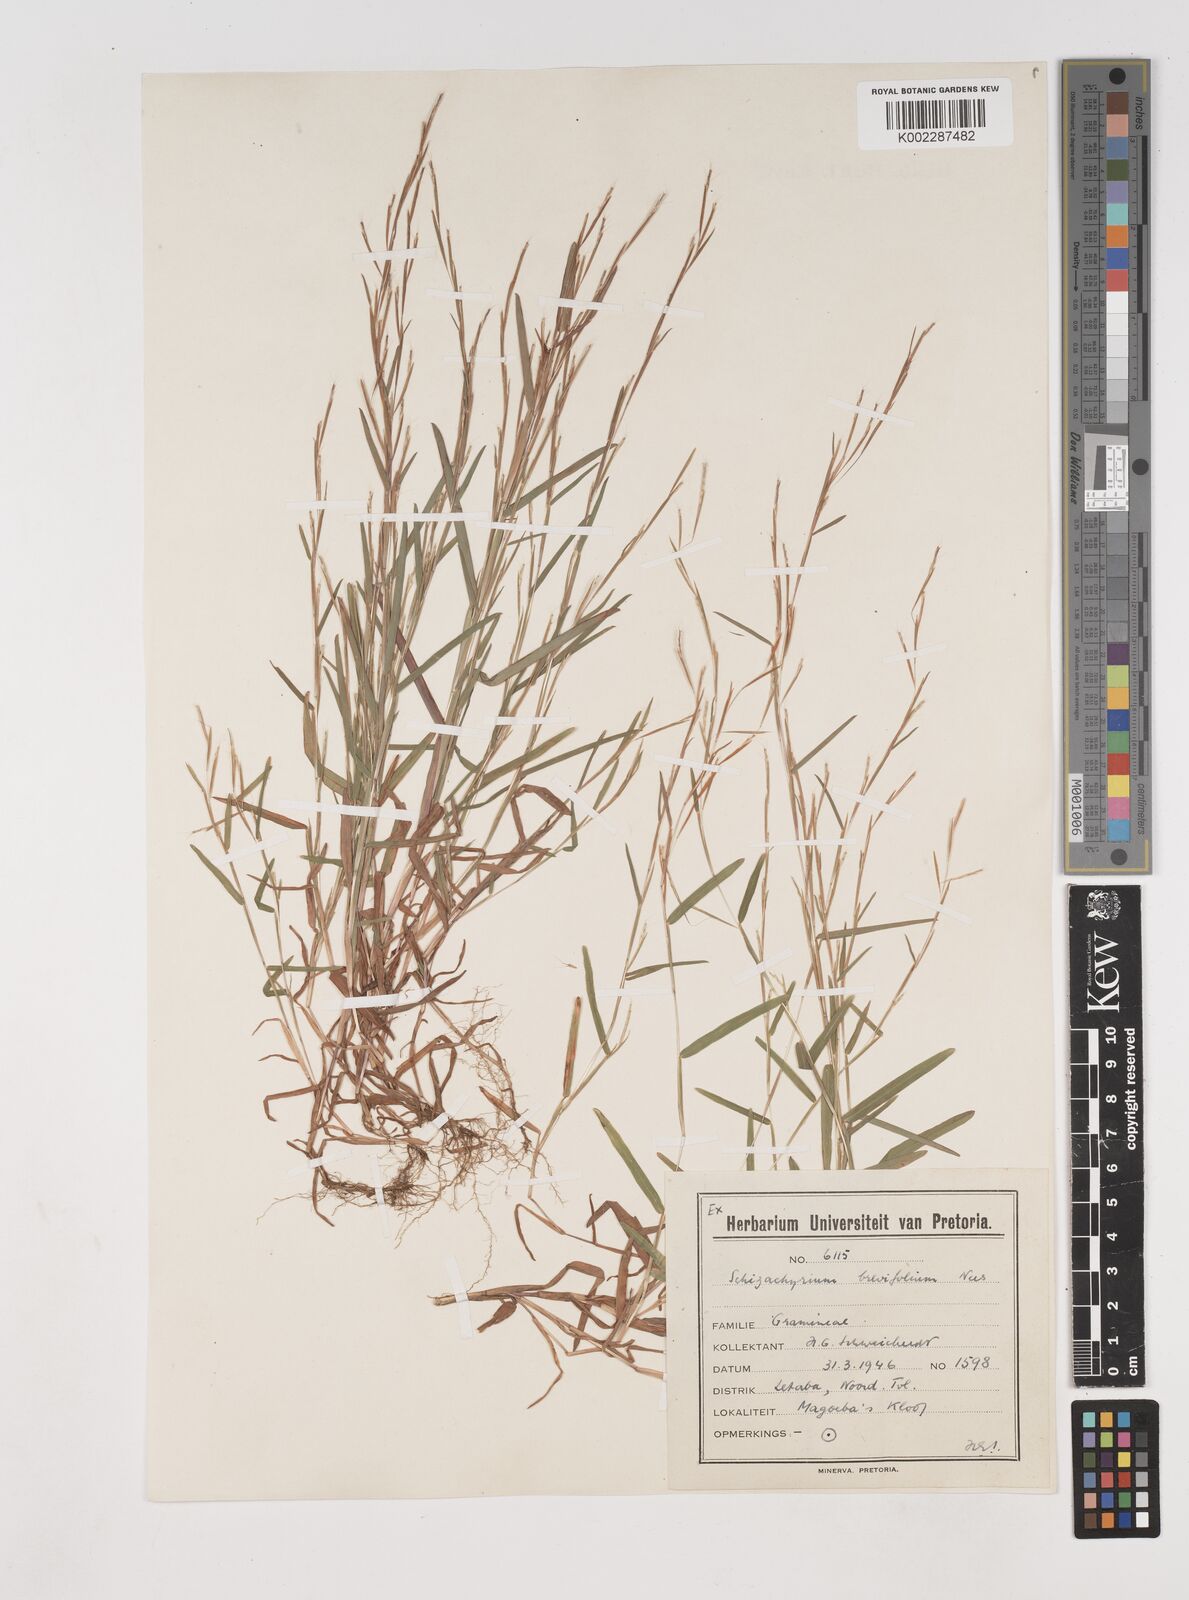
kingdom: Plantae
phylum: Tracheophyta
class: Liliopsida
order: Poales
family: Poaceae
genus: Schizachyrium
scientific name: Schizachyrium brevifolium
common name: Serillo dulce
